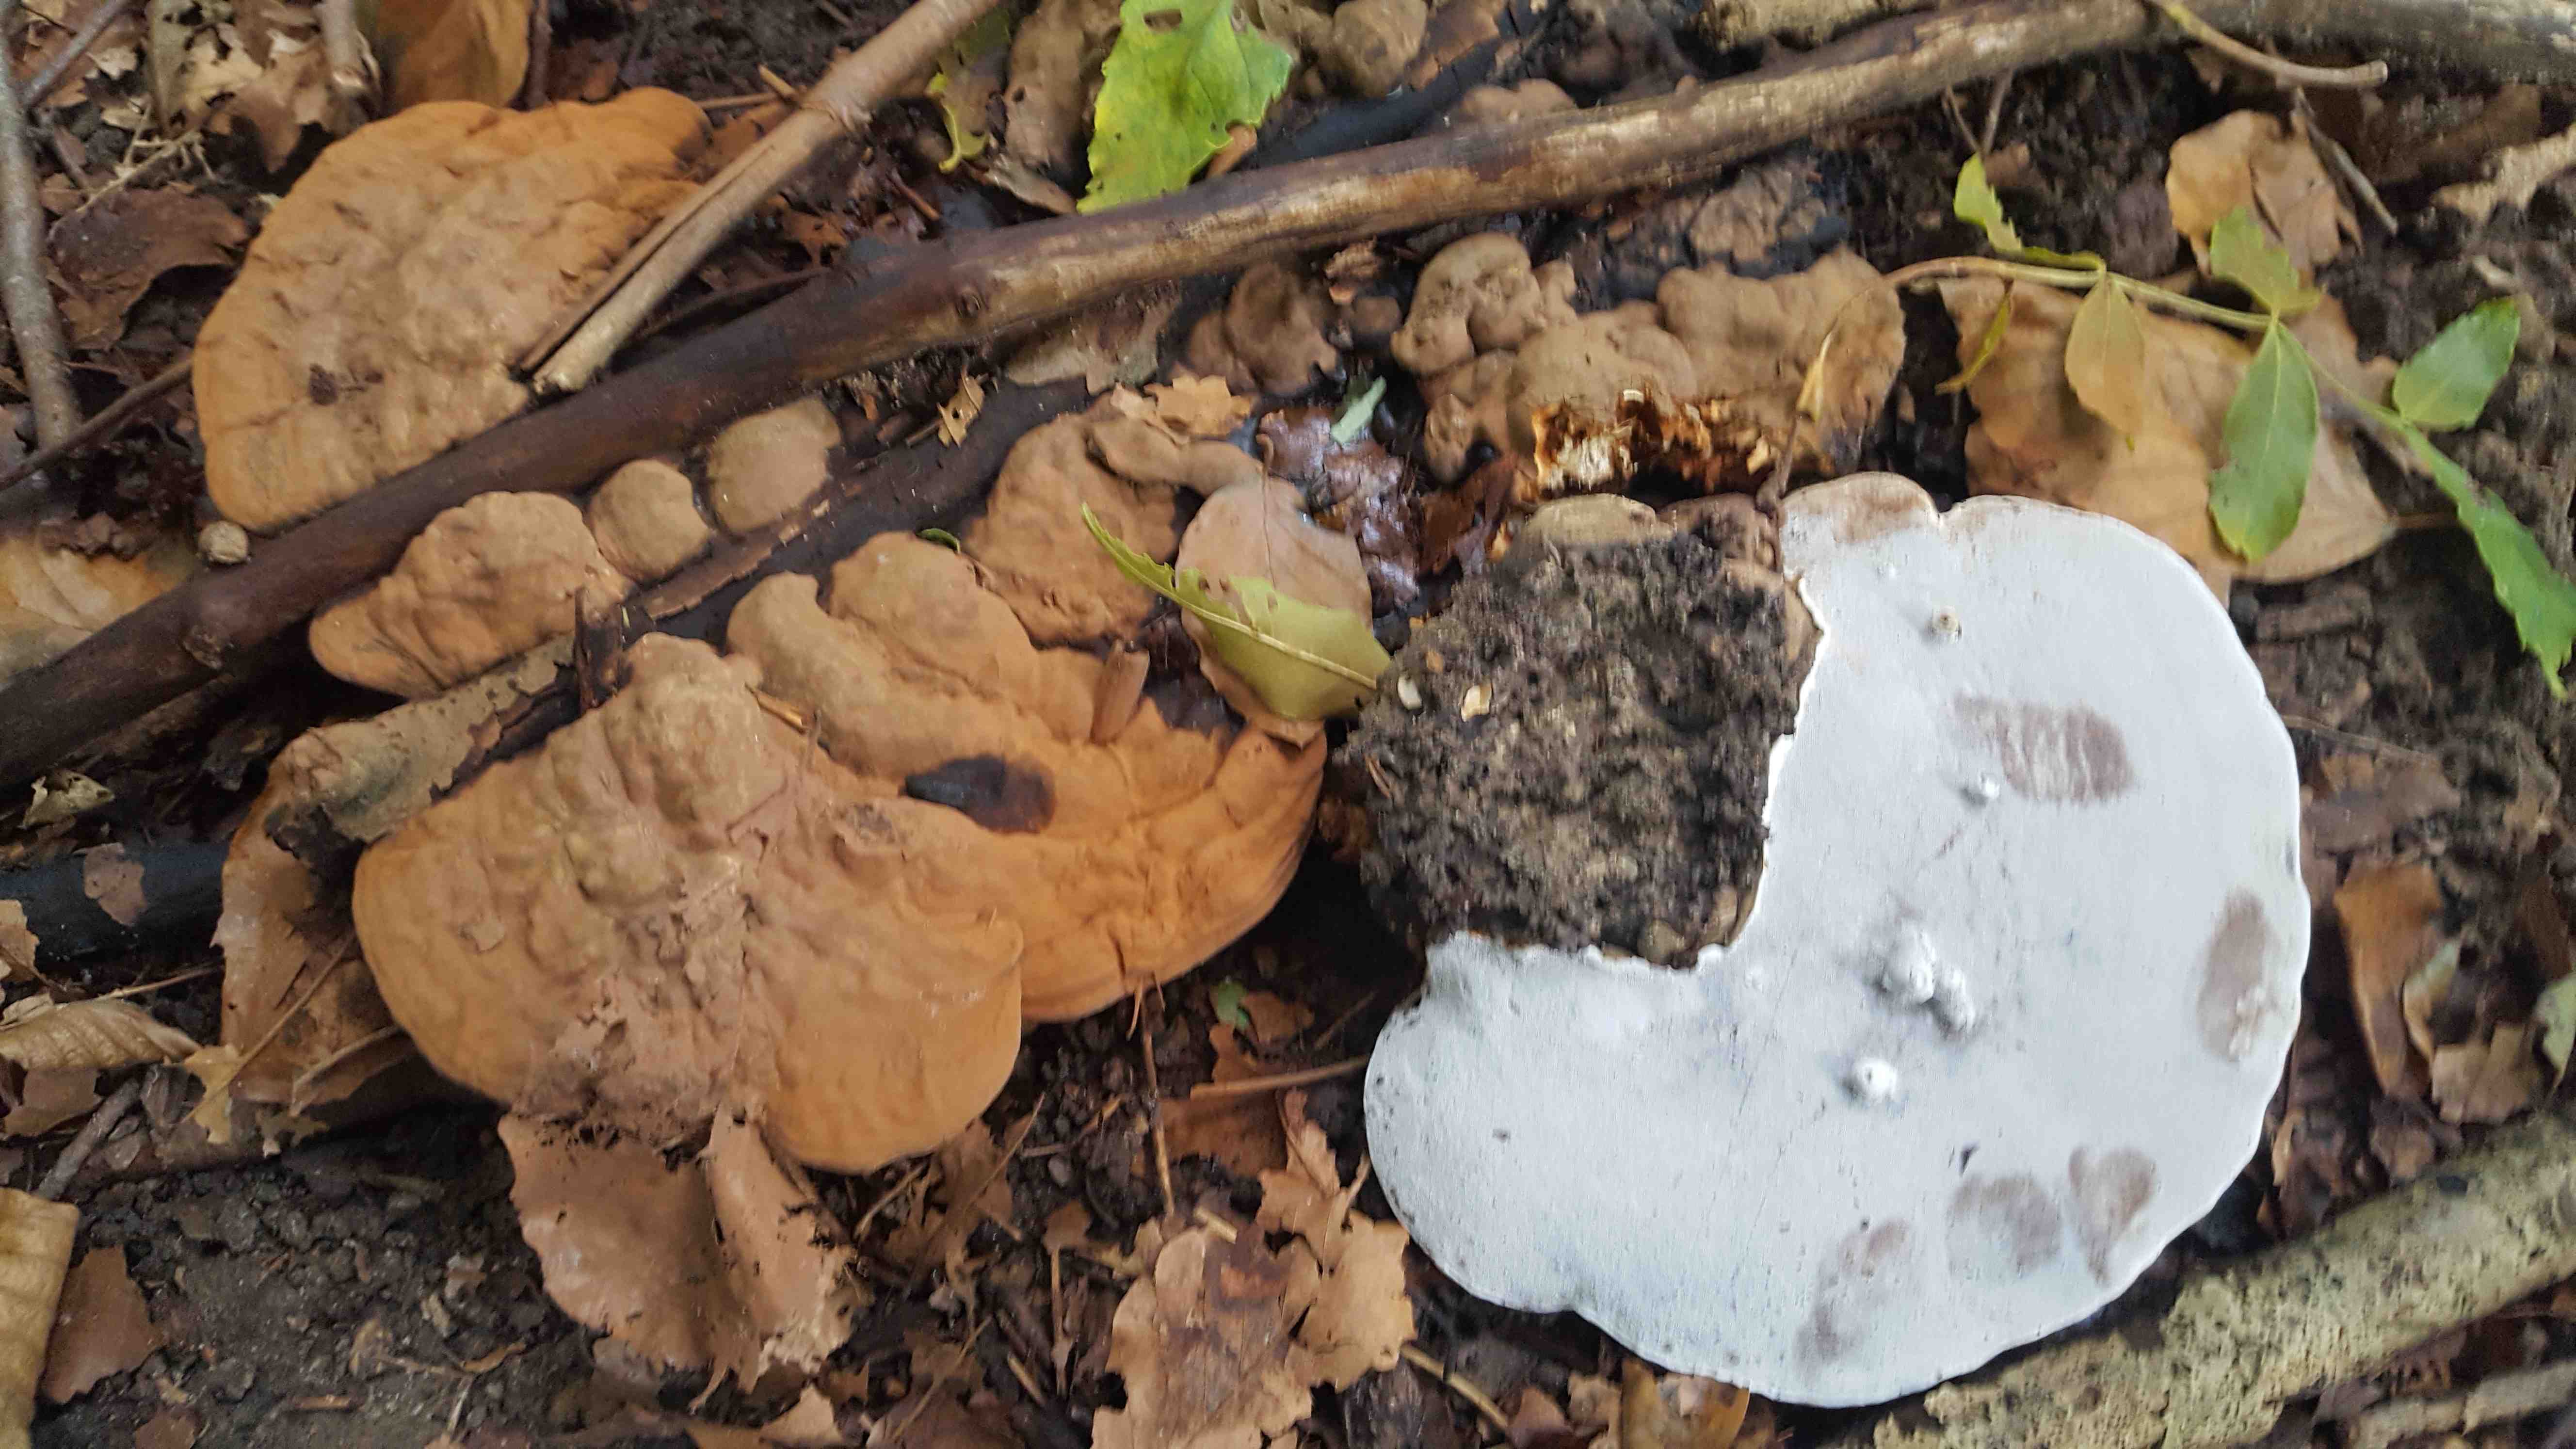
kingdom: Fungi
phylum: Basidiomycota
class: Agaricomycetes
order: Polyporales
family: Polyporaceae
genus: Ganoderma
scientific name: Ganoderma applanatum
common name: flad lakporesvamp
